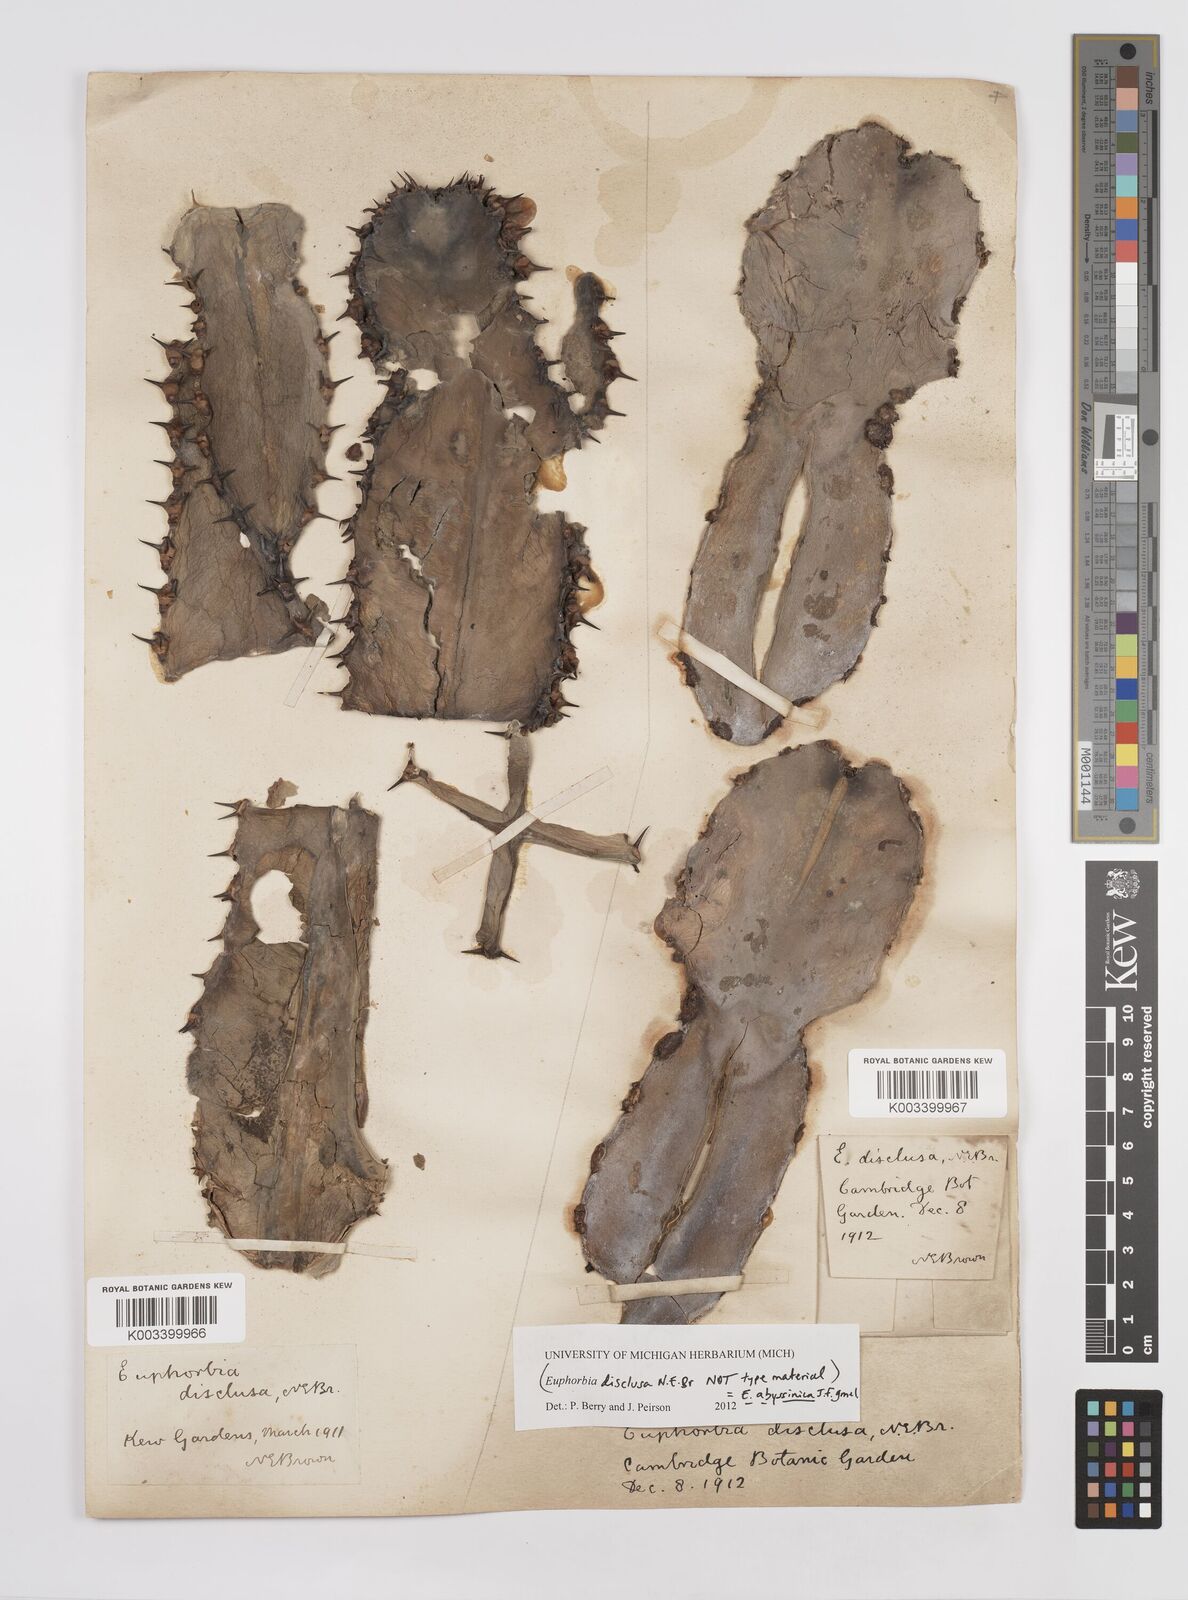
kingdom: Plantae
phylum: Tracheophyta
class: Magnoliopsida
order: Malpighiales
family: Euphorbiaceae
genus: Euphorbia
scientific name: Euphorbia abyssinica
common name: Abyssinian spurge
